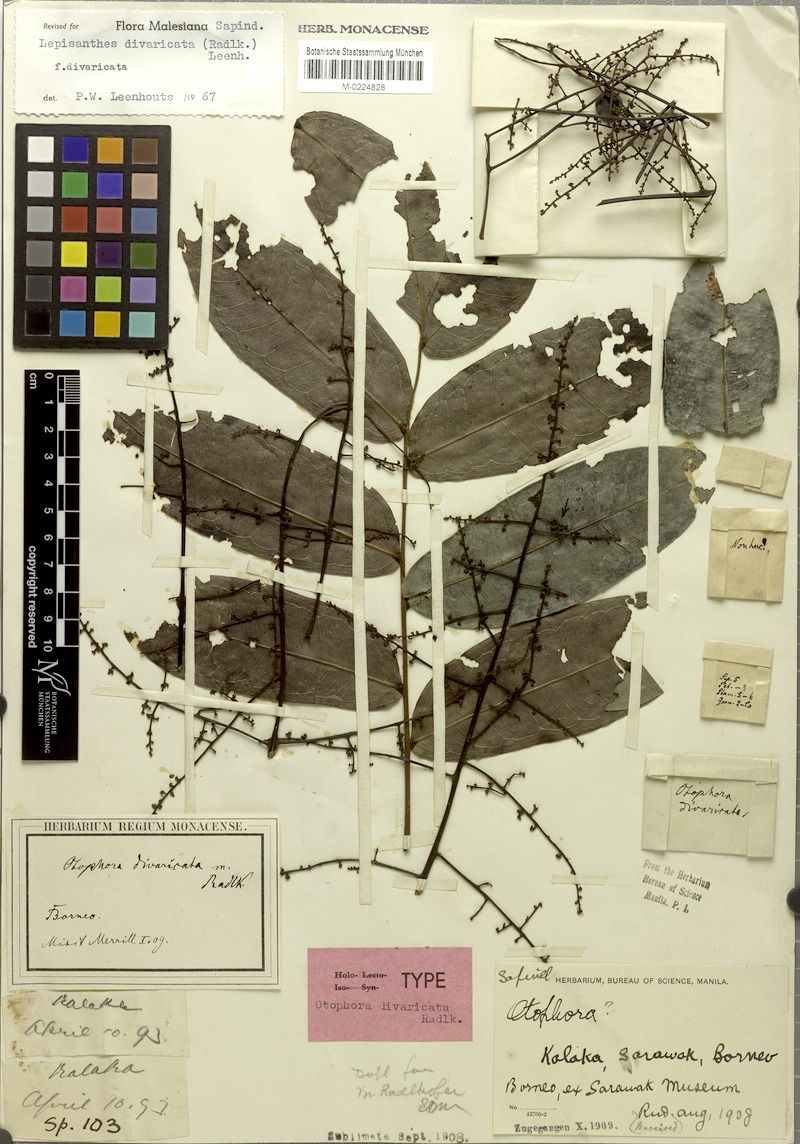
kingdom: Plantae
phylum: Tracheophyta
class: Magnoliopsida
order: Sapindales
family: Sapindaceae
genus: Lepisanthes
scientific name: Lepisanthes divaricata
